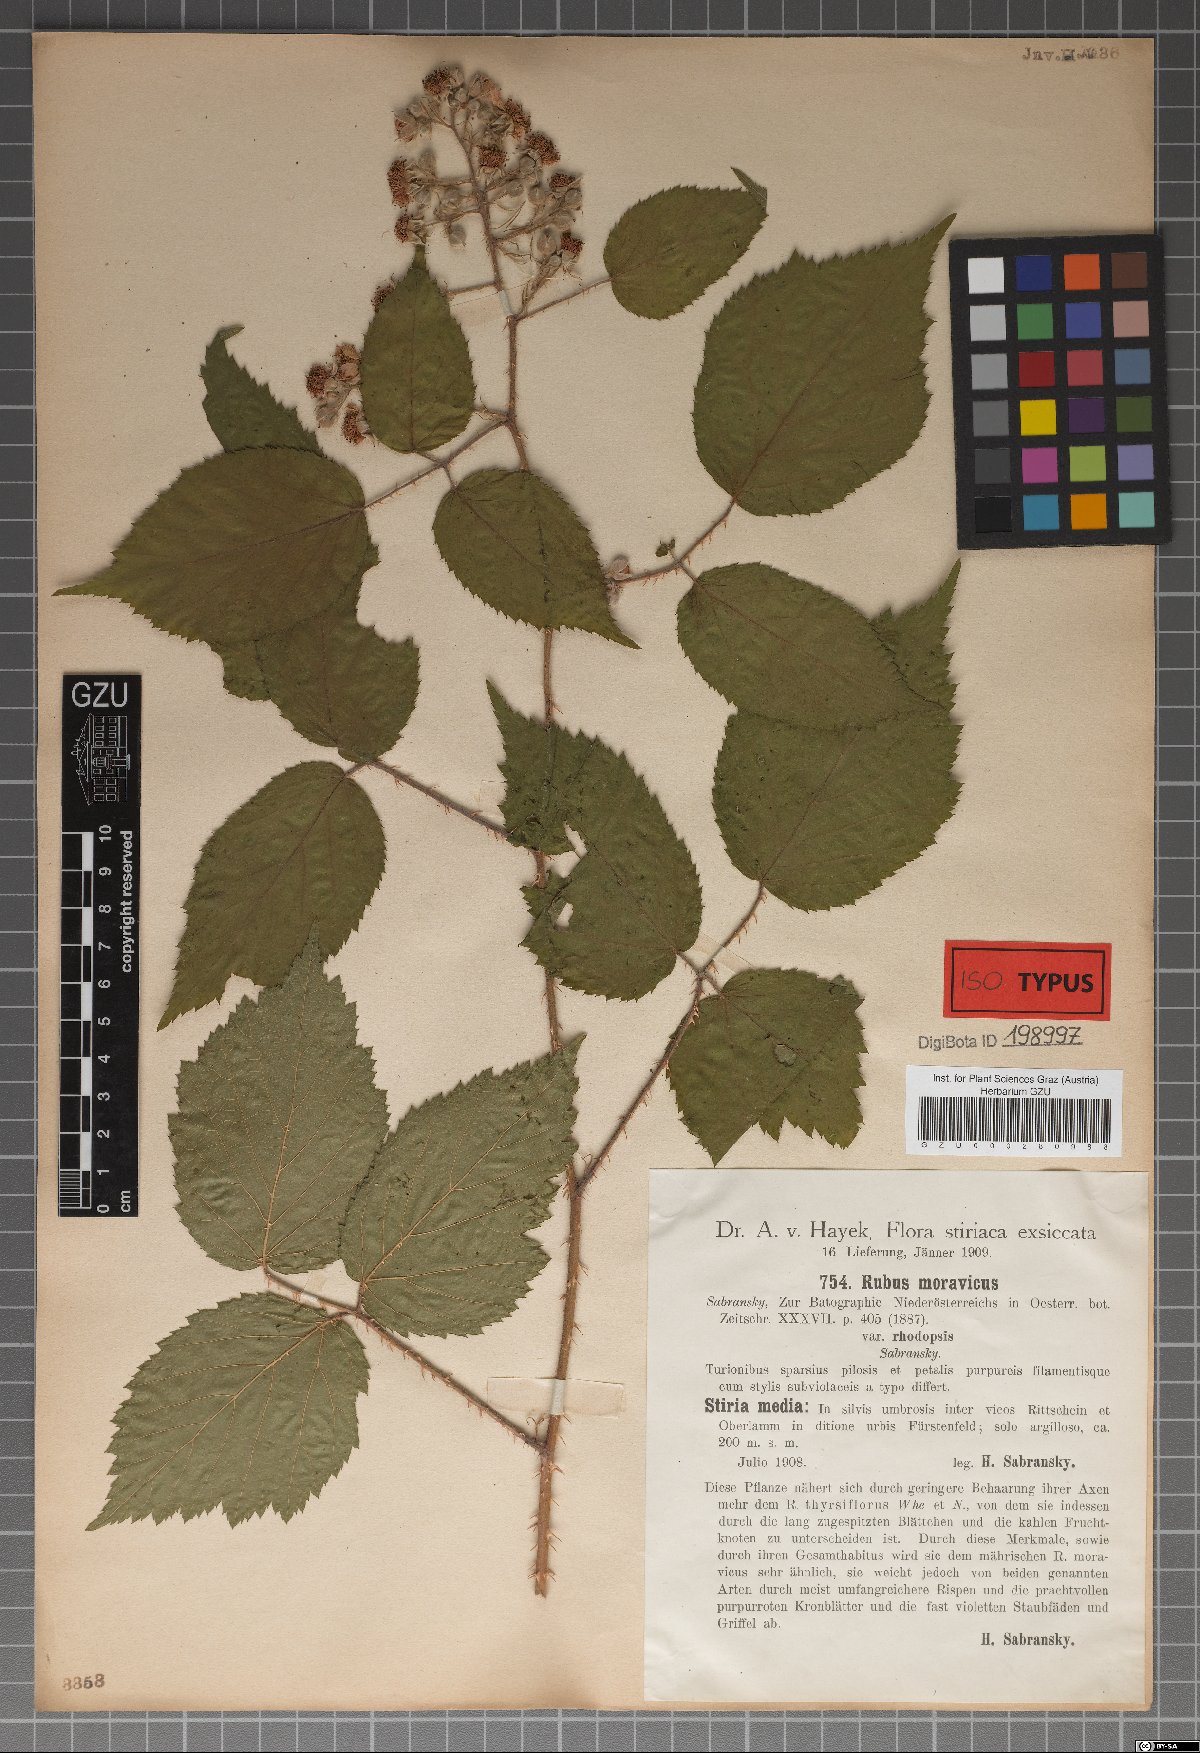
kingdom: Plantae
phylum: Tracheophyta
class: Magnoliopsida
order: Rosales
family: Rosaceae
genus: Rubus
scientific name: Rubus moravicus
